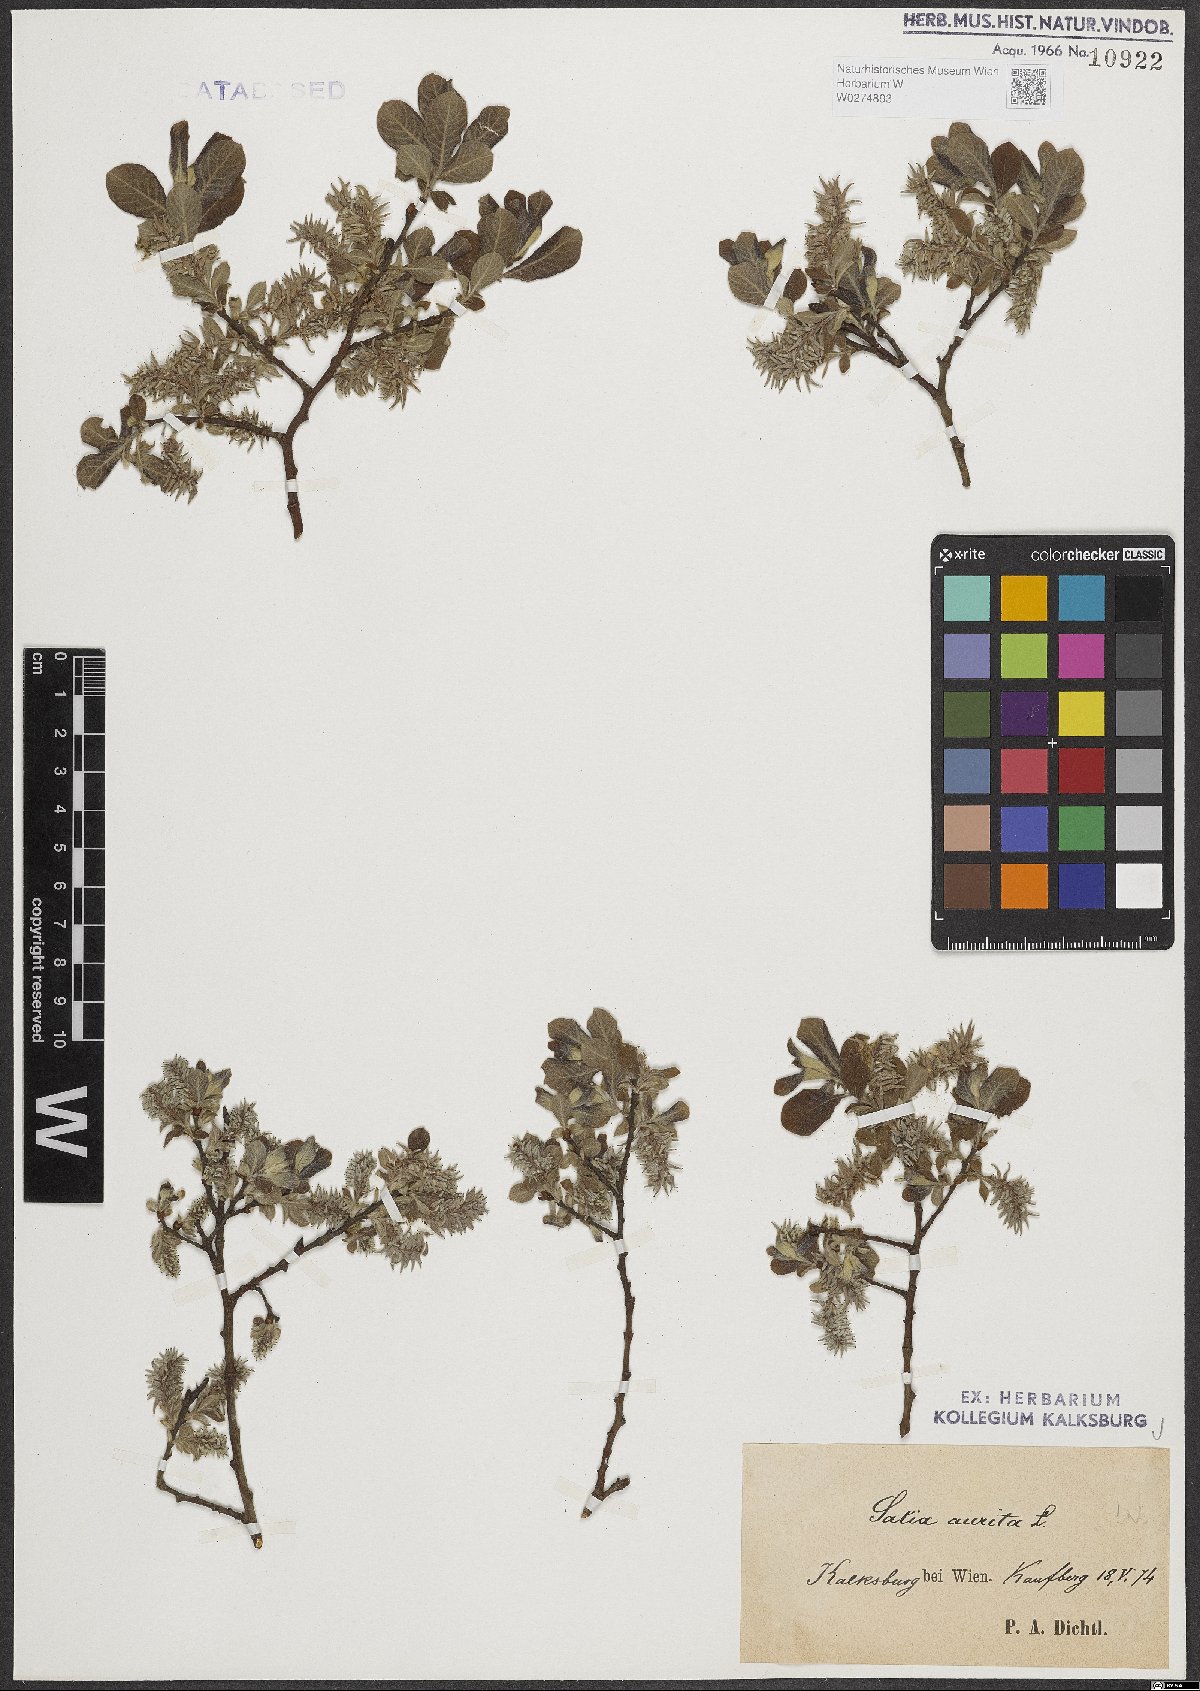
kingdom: Plantae
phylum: Tracheophyta
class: Magnoliopsida
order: Malpighiales
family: Salicaceae
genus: Salix
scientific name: Salix aurita
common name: Eared willow
